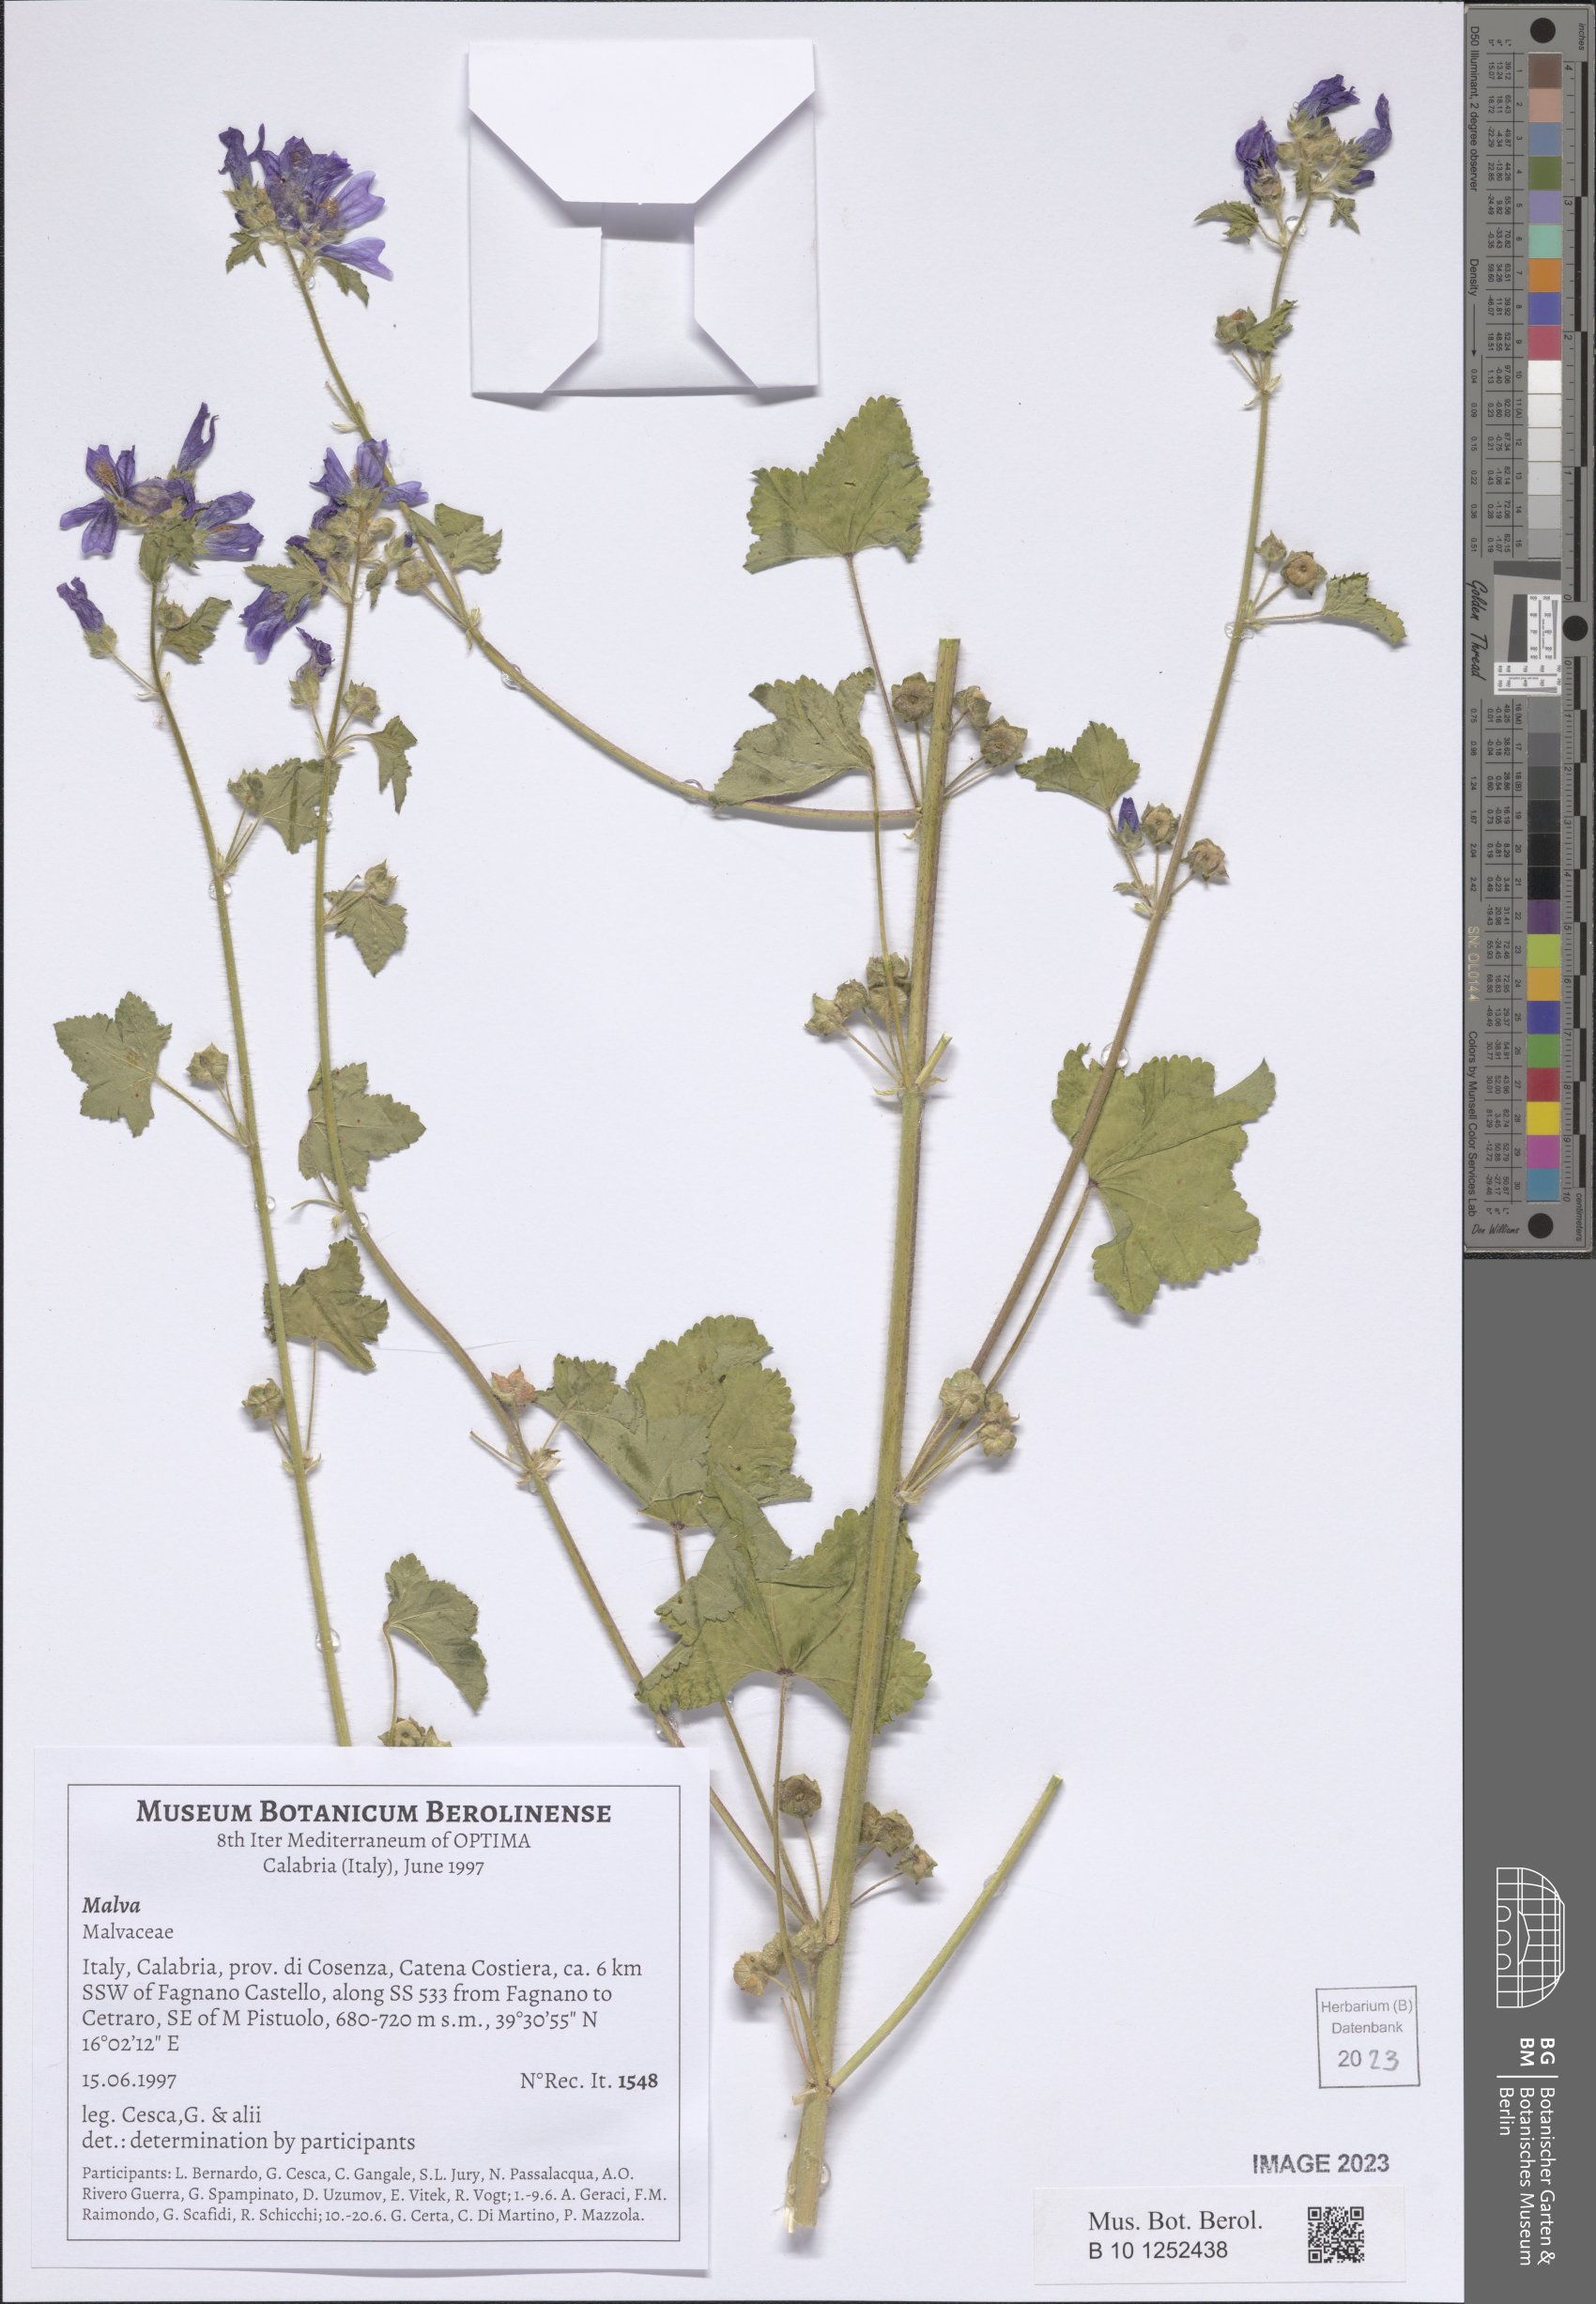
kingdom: Plantae
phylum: Tracheophyta
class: Magnoliopsida
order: Malvales
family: Malvaceae
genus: Malva
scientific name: Malva
